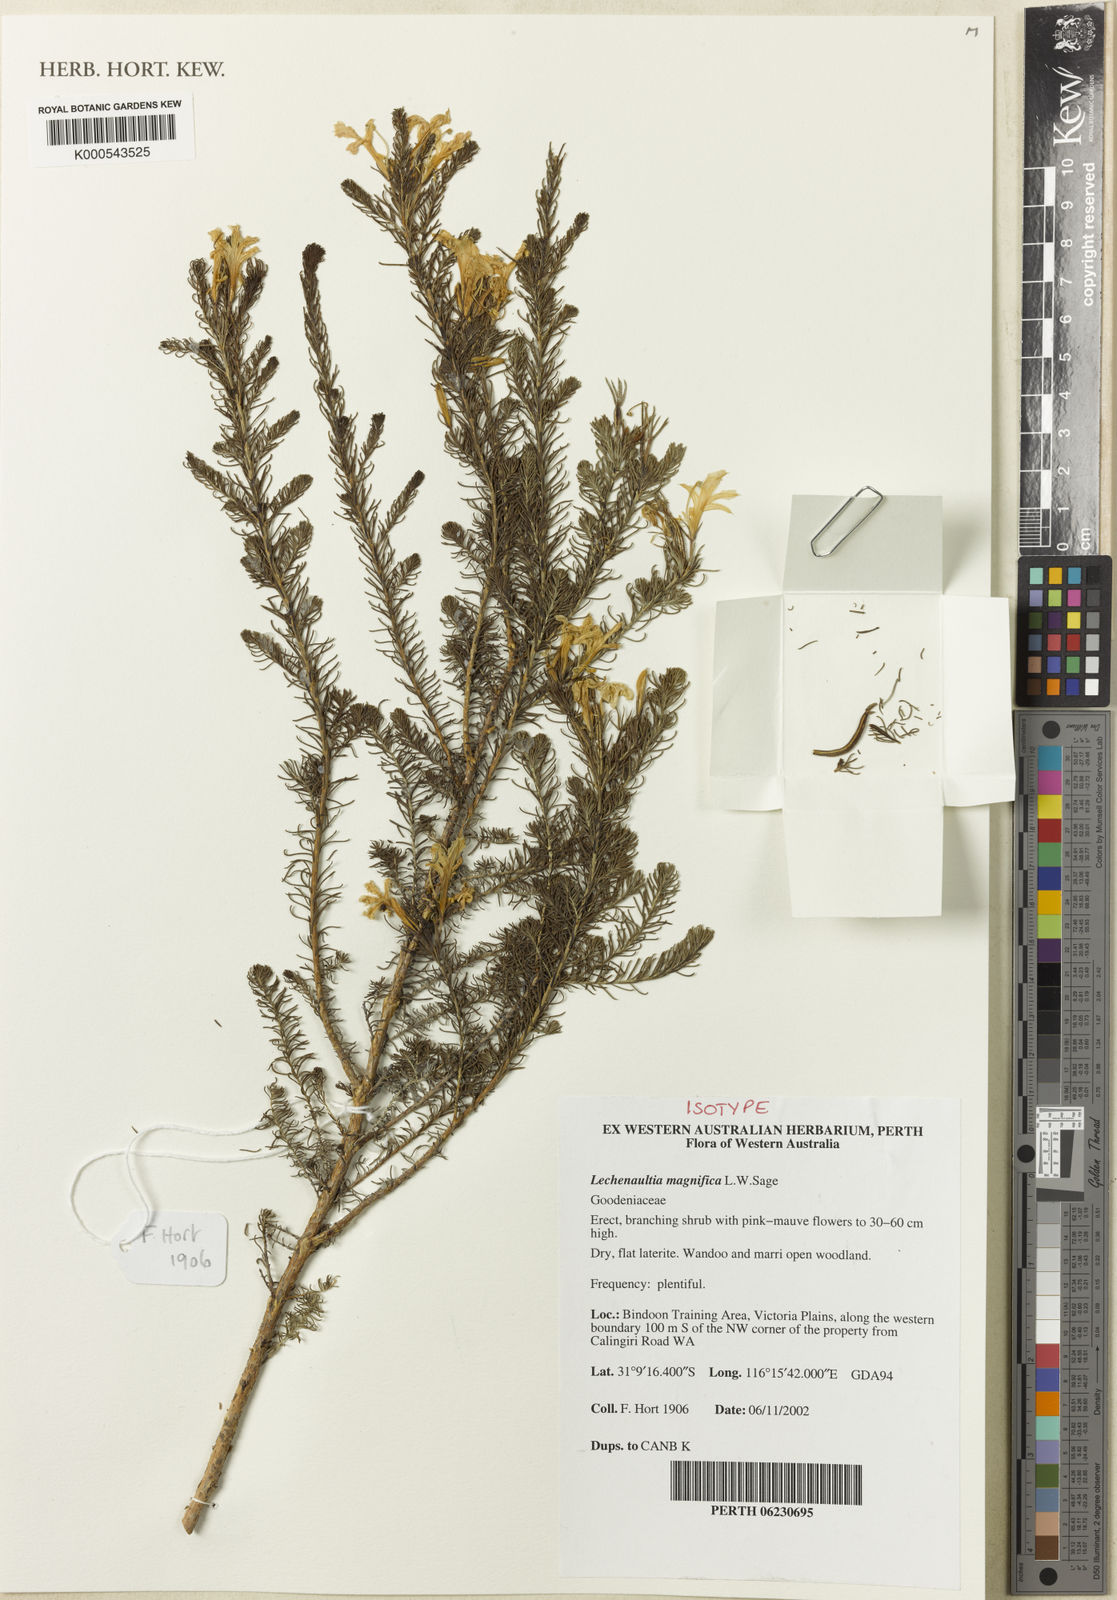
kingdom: Plantae
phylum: Tracheophyta
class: Magnoliopsida
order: Asterales
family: Goodeniaceae
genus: Leschenaultia
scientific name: Leschenaultia magnifica
